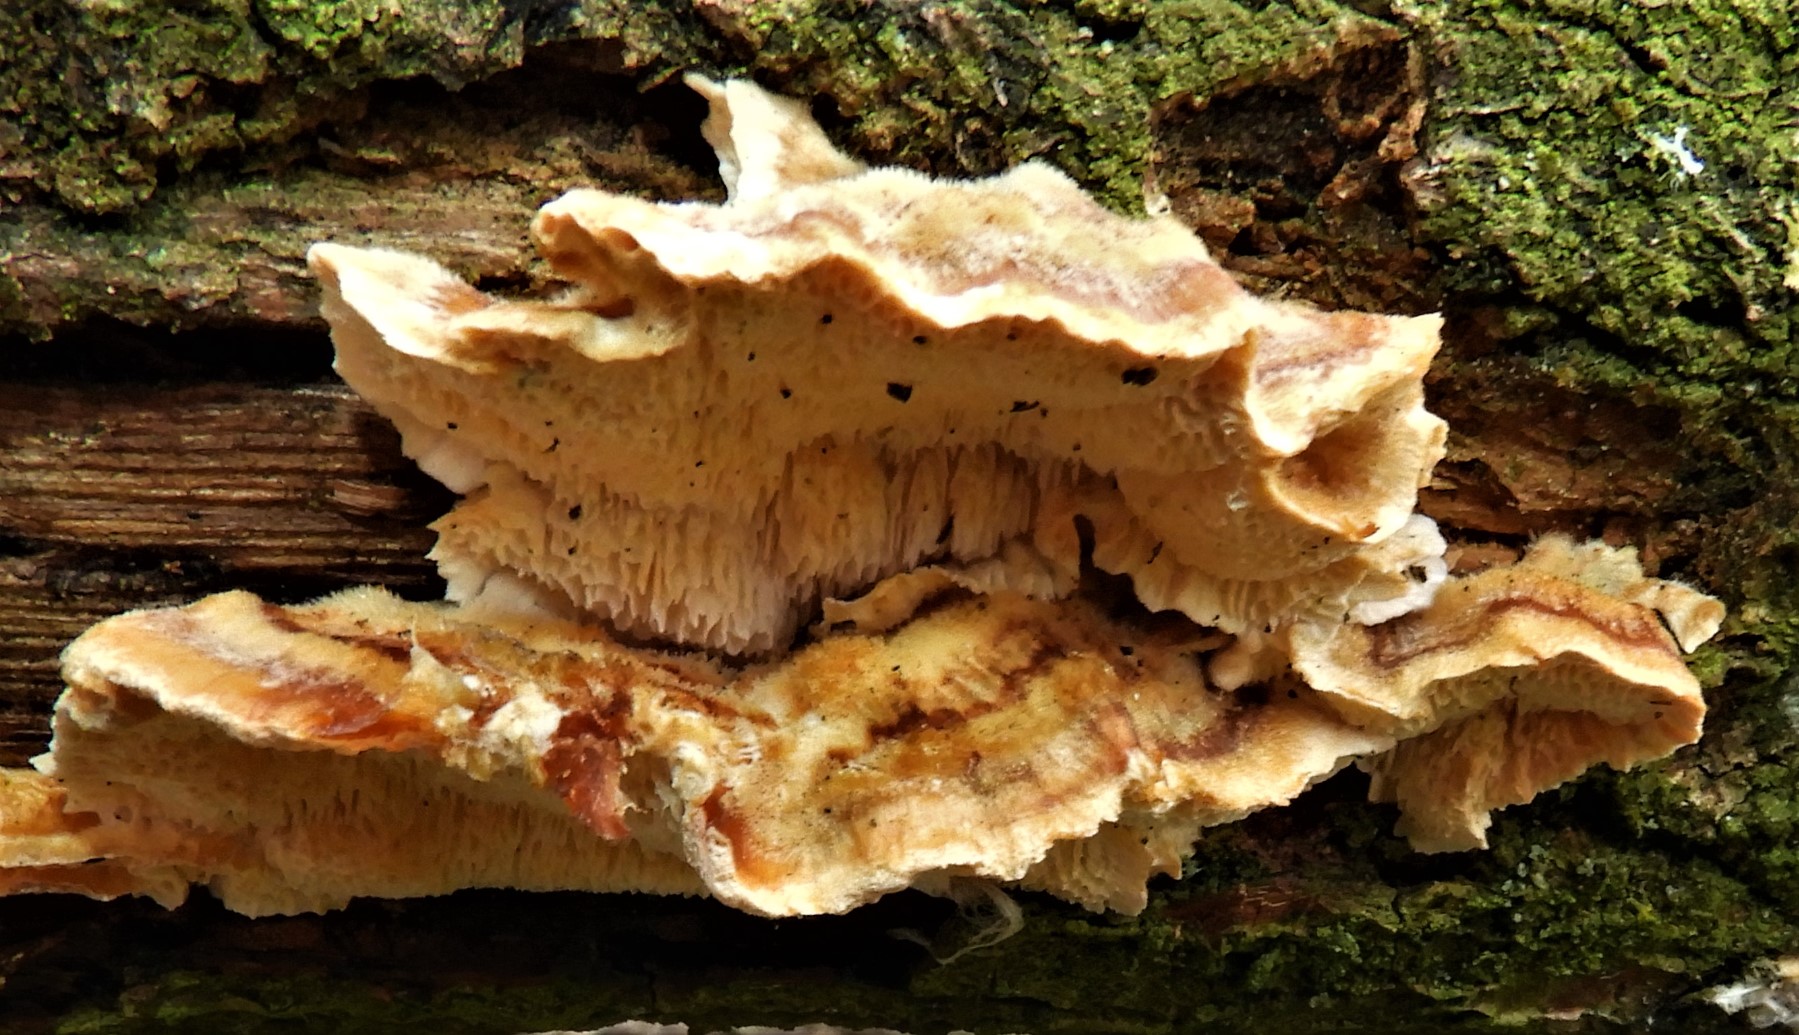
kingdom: Fungi
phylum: Basidiomycota
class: Agaricomycetes
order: Polyporales
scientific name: Polyporales
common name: poresvampordenen
